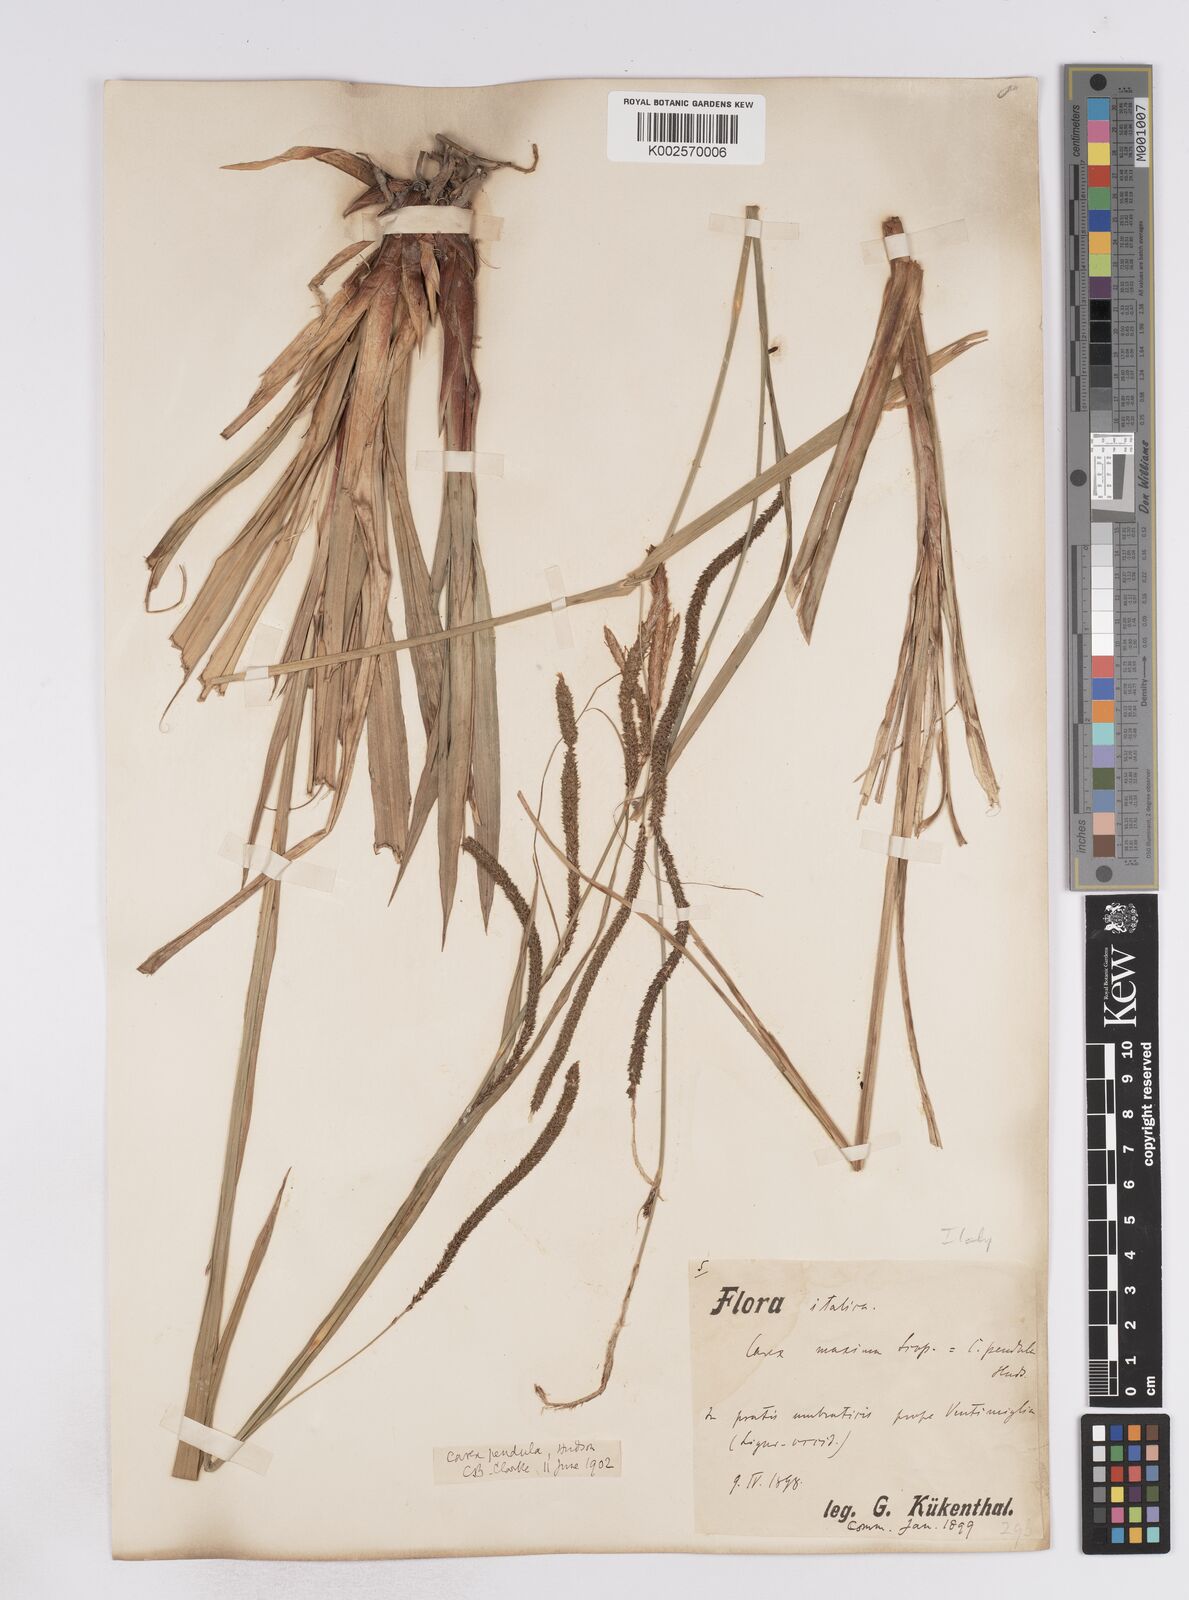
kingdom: Plantae
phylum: Tracheophyta
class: Liliopsida
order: Poales
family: Cyperaceae
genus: Carex
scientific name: Carex pendula
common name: Pendulous sedge
